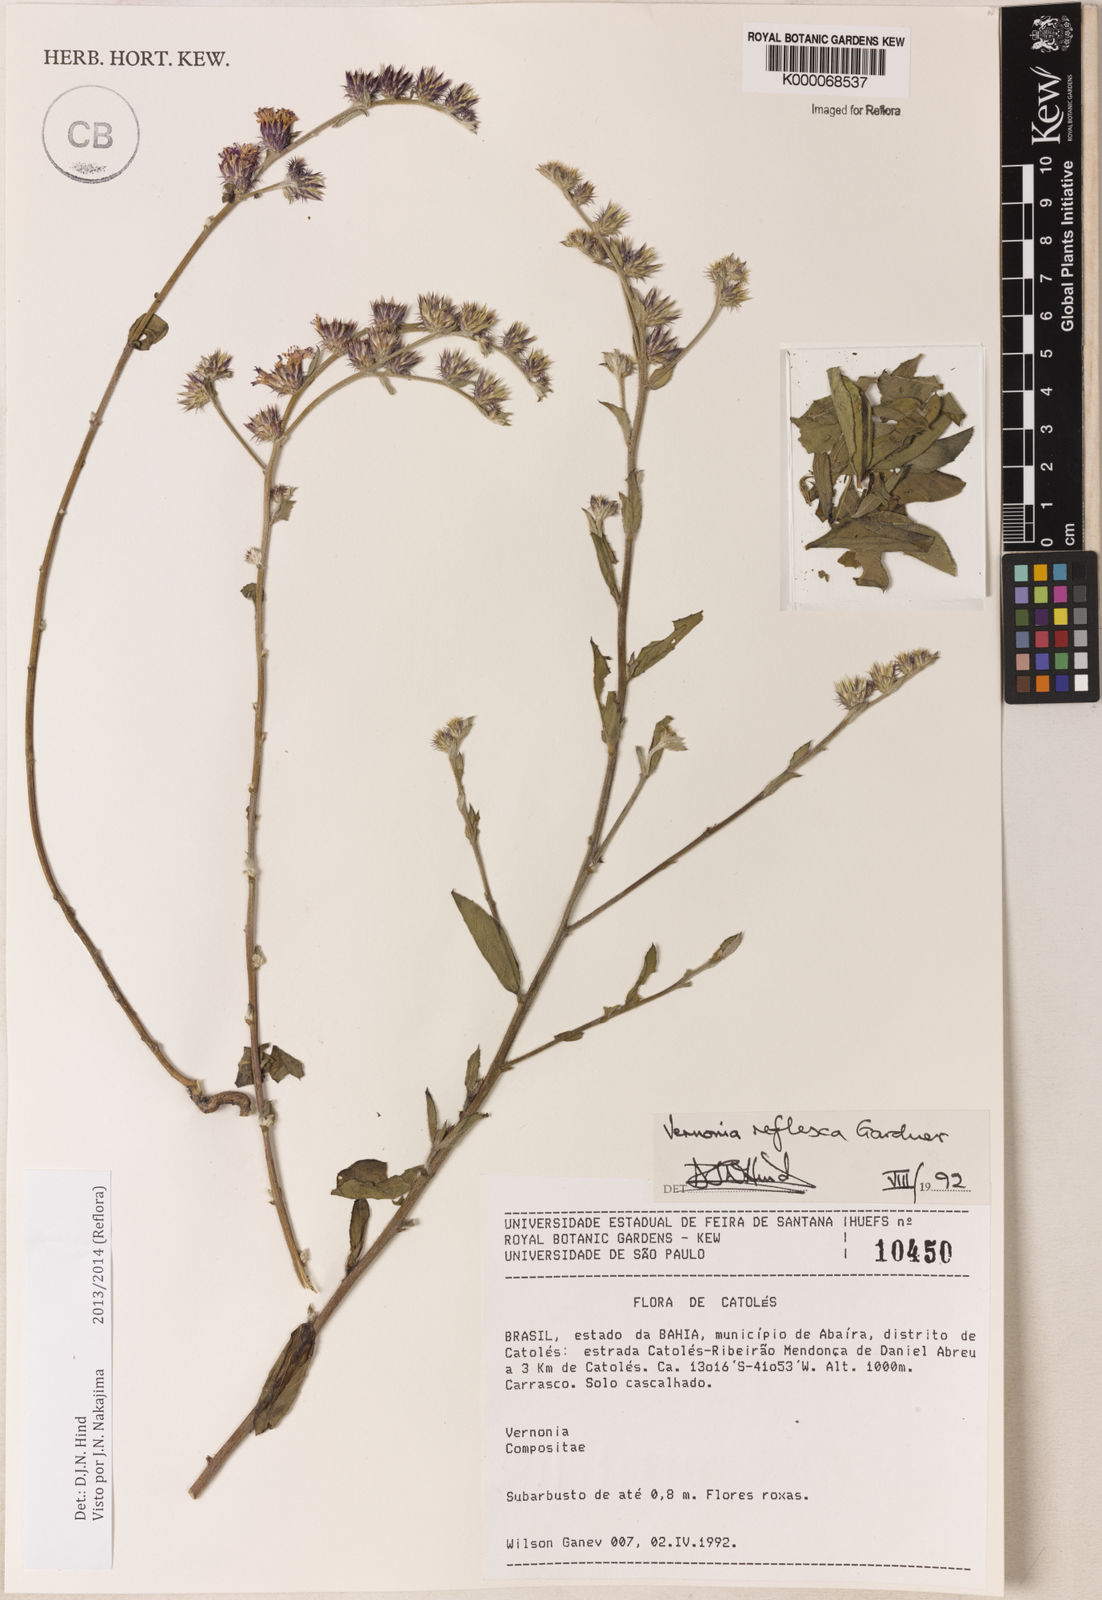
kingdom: Plantae
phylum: Tracheophyta
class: Liliopsida
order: Poales
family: Bromeliaceae
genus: Tillandsia
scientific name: Tillandsia juncea
